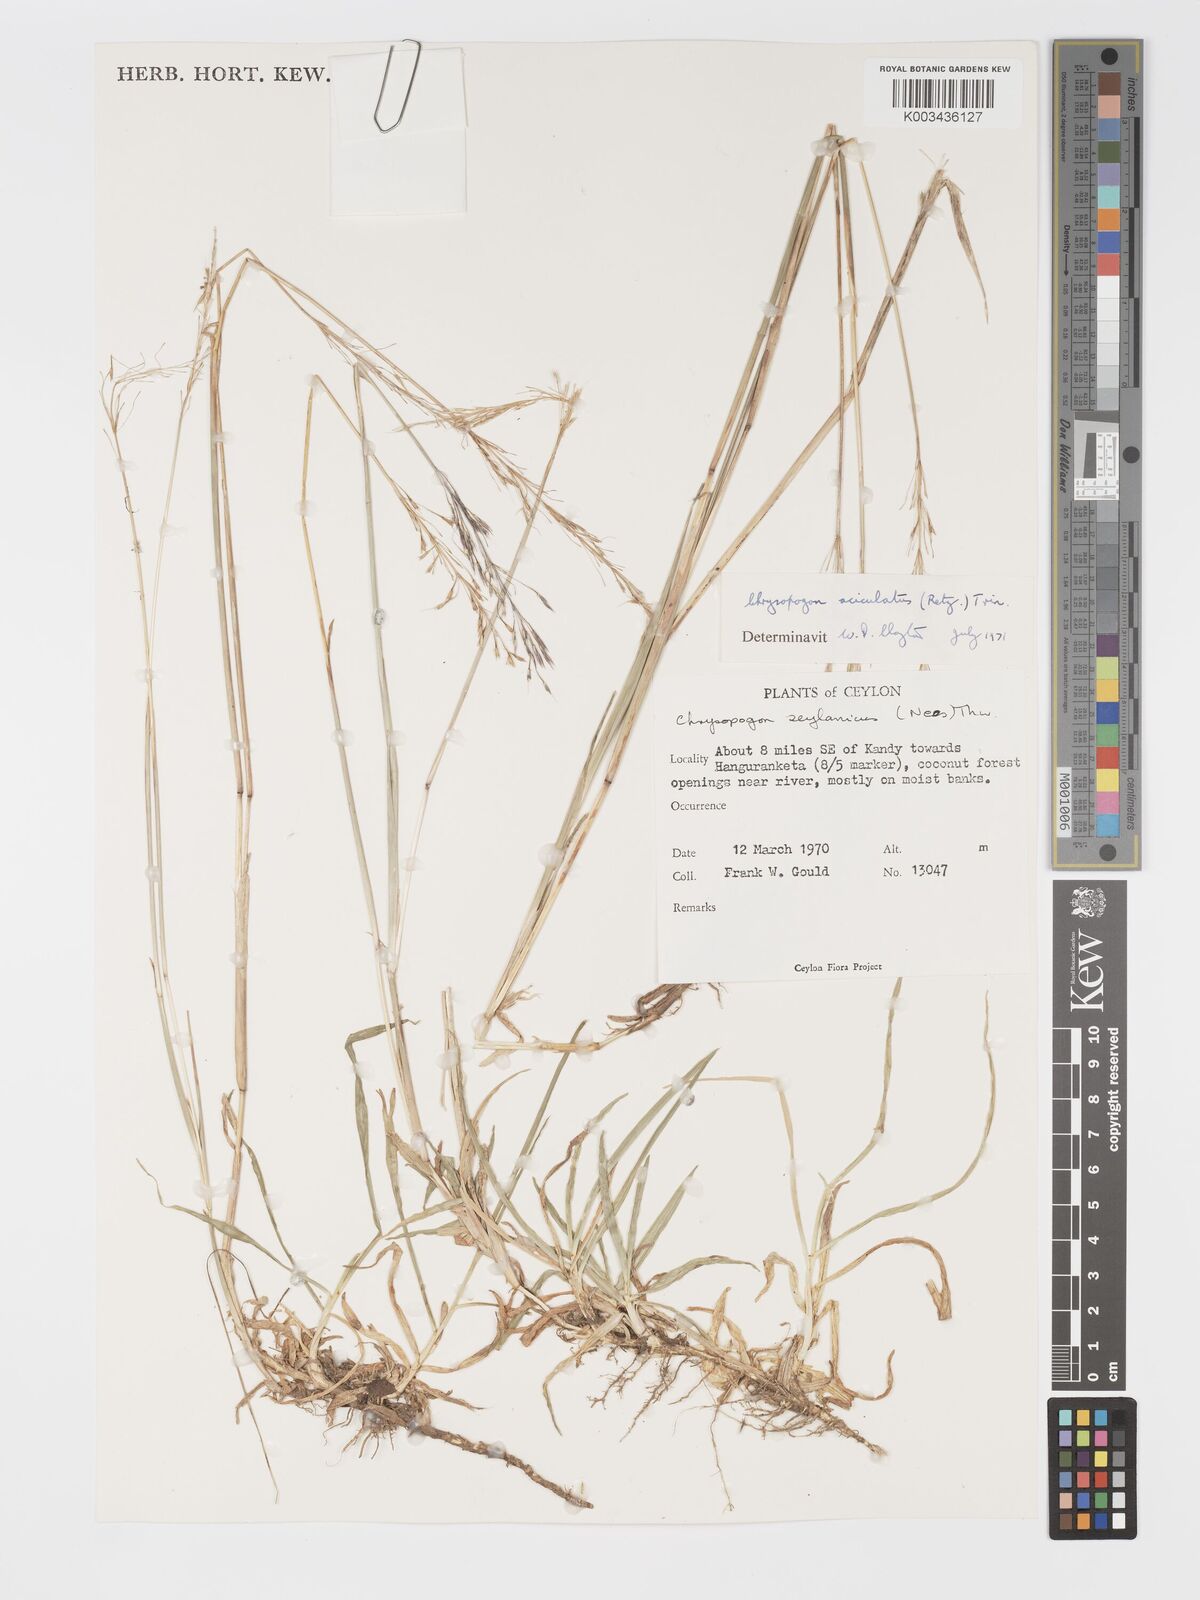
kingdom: Plantae
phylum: Tracheophyta
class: Liliopsida
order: Poales
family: Poaceae
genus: Chrysopogon
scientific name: Chrysopogon aciculatus
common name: Pilipiliula
